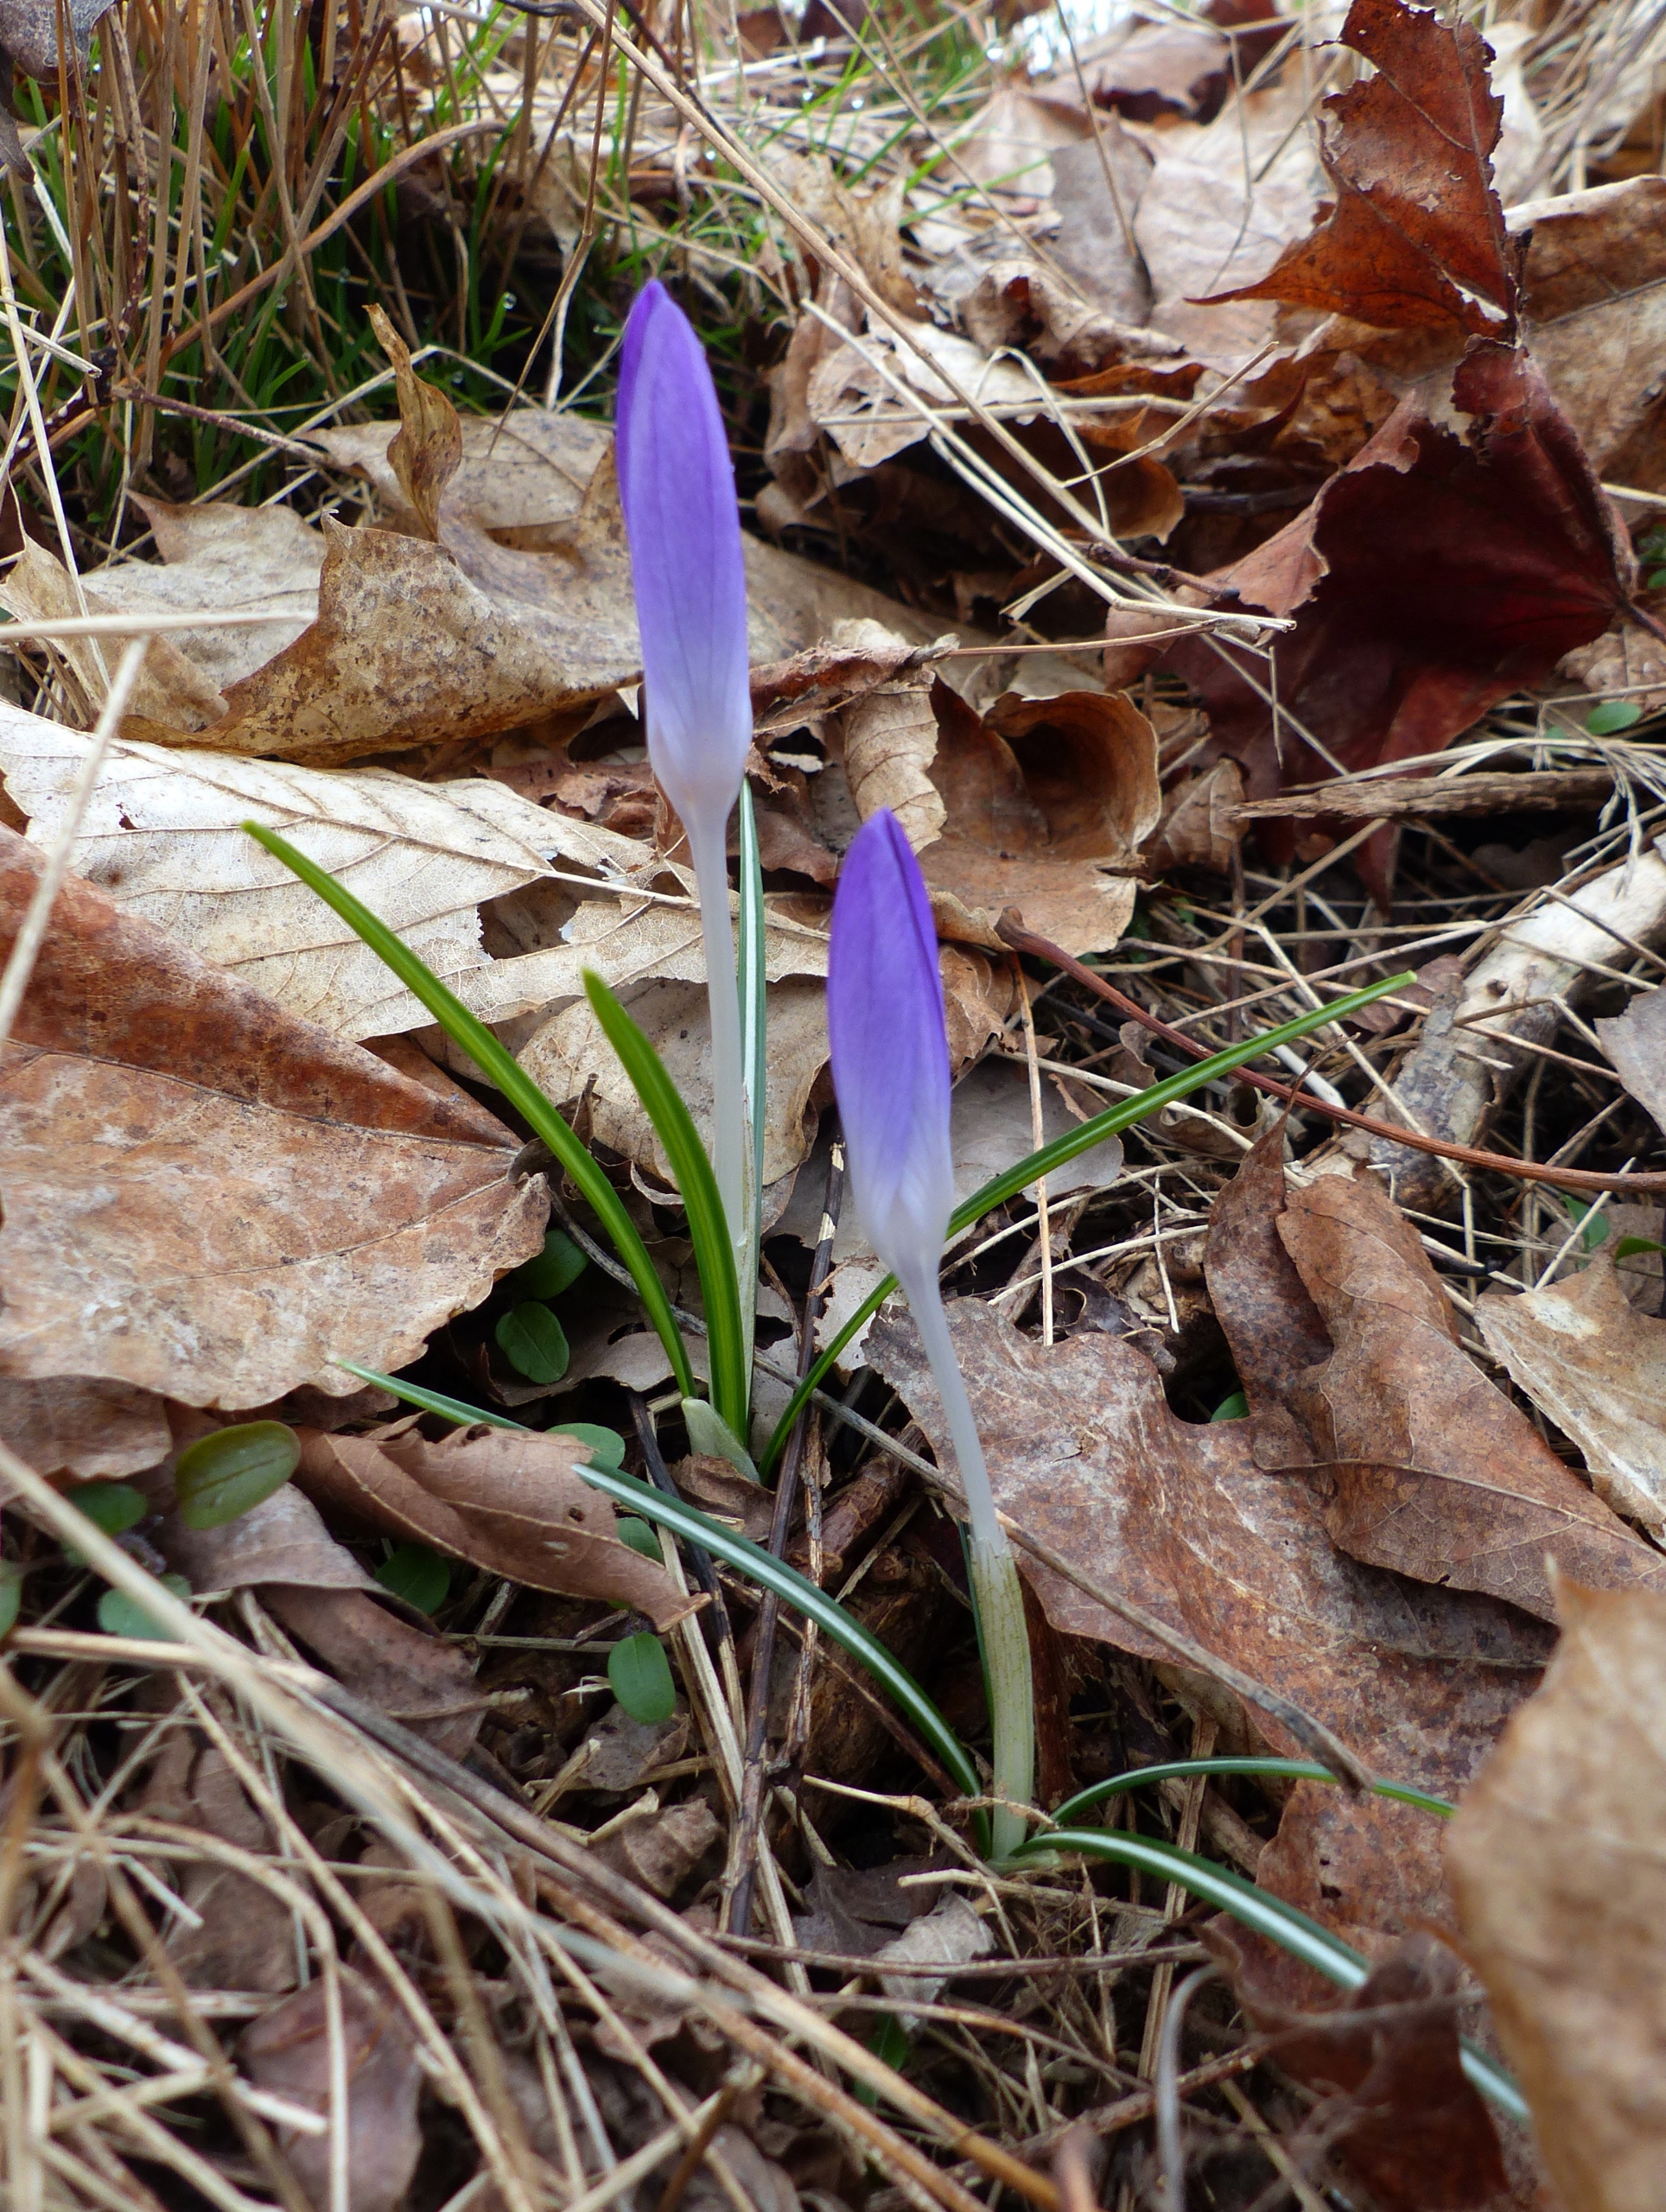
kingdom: Plantae
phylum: Tracheophyta
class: Liliopsida
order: Asparagales
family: Iridaceae
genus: Crocus
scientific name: Crocus tommasinianus
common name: Sne-krokus
